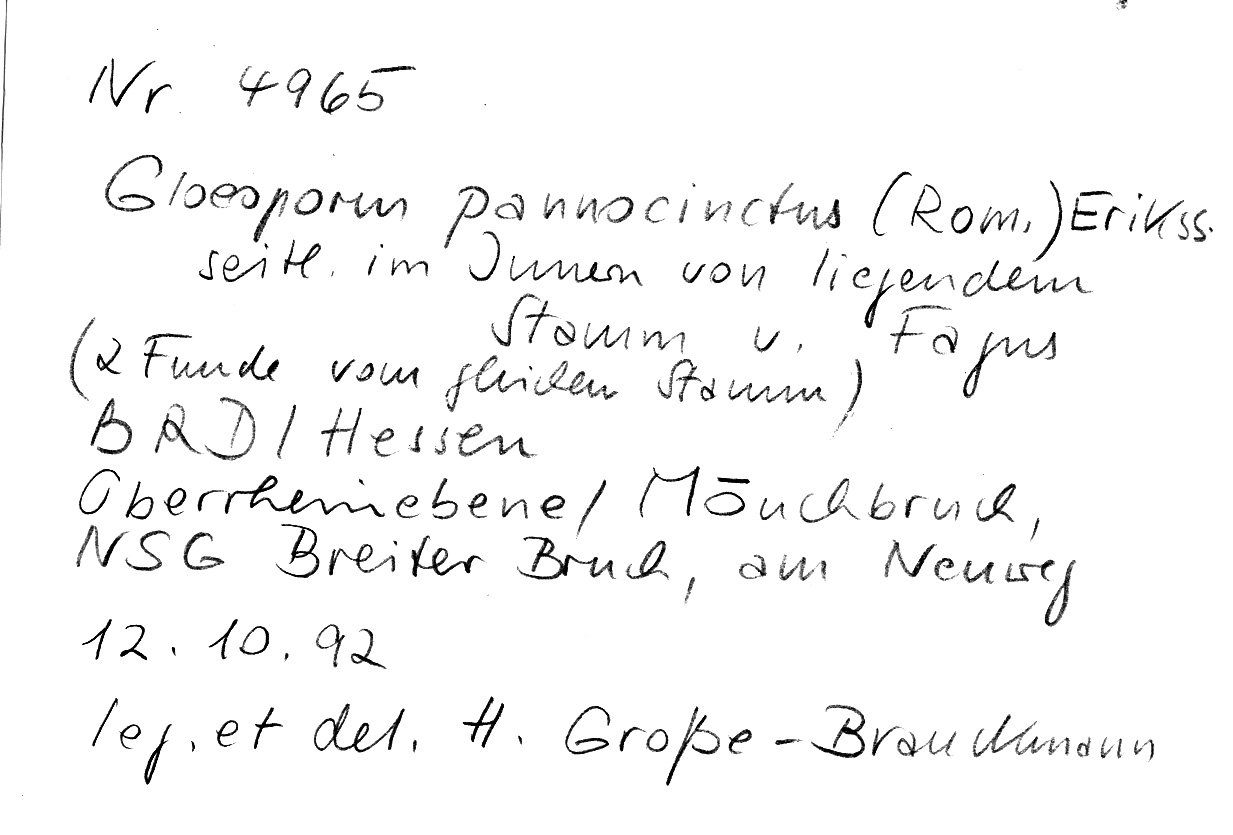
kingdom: Fungi
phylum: Basidiomycota
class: Agaricomycetes
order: Polyporales
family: Irpicaceae
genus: Gloeoporus
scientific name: Gloeoporus pannocinctus
